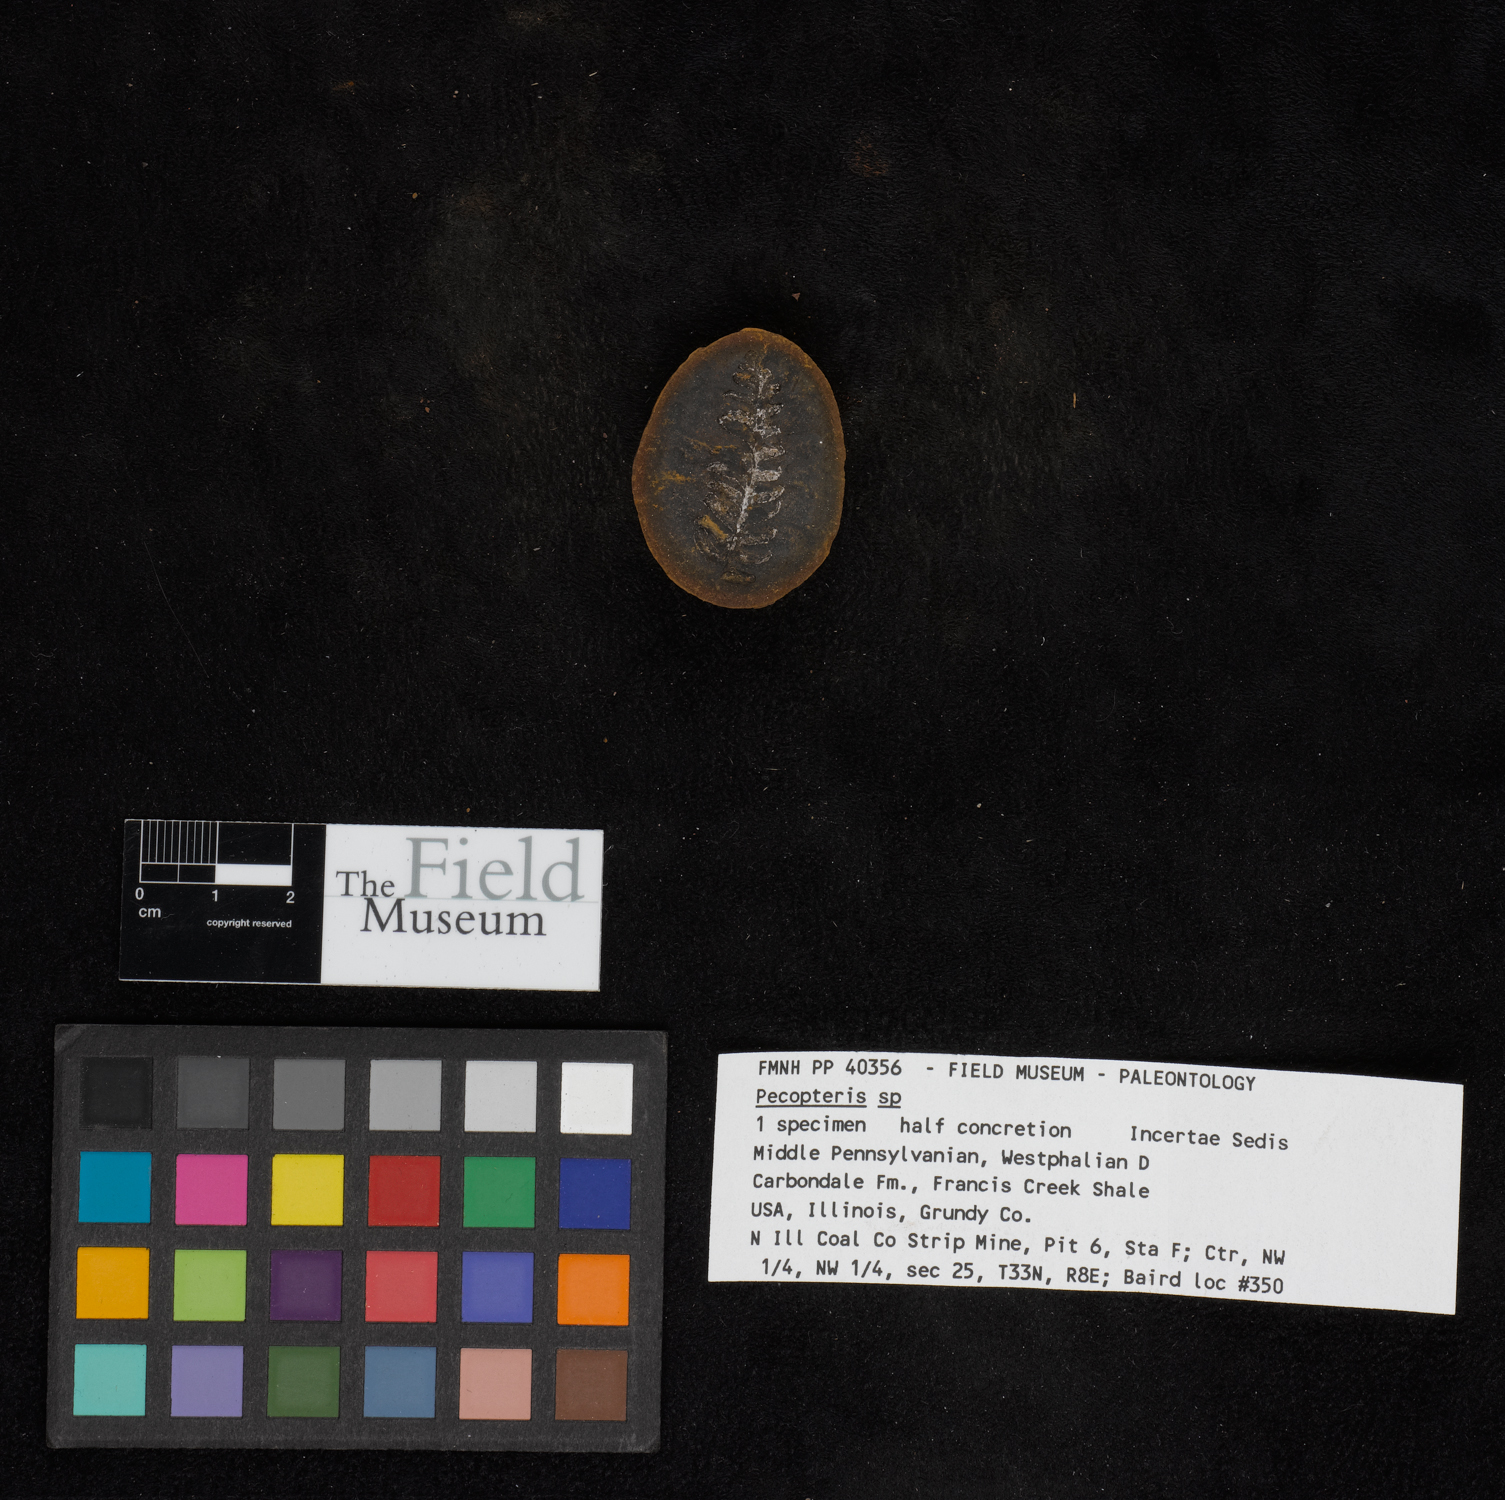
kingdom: Plantae
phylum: Tracheophyta
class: Polypodiopsida
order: Marattiales
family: Asterothecaceae
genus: Pecopteris
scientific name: Pecopteris
